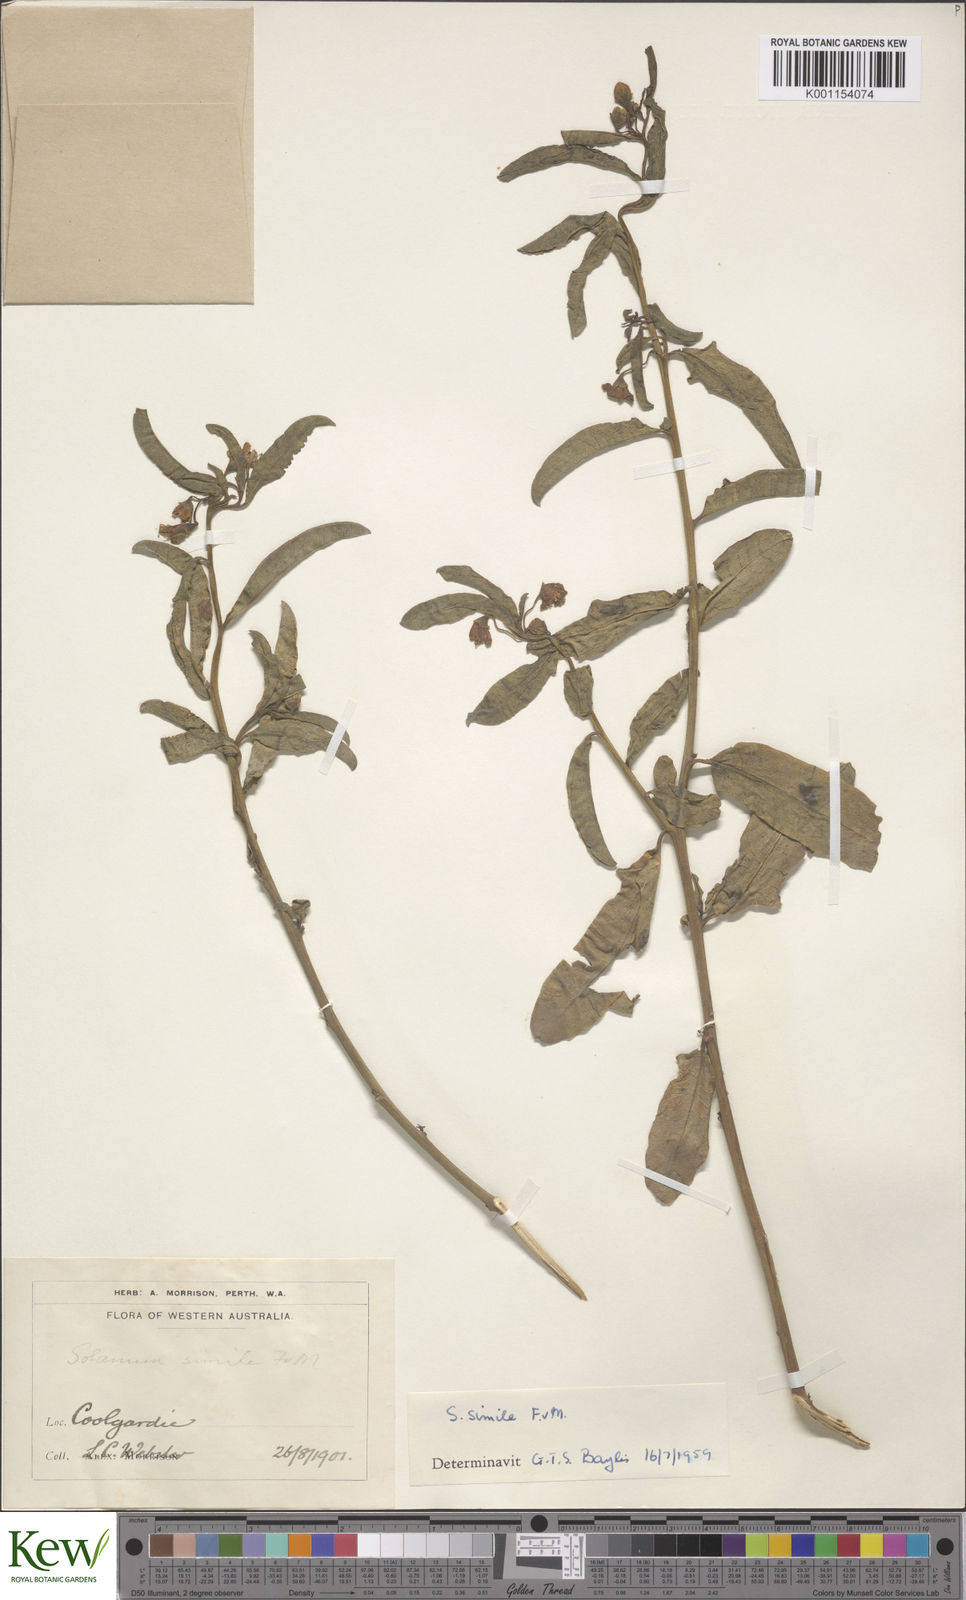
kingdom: Plantae
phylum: Tracheophyta
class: Magnoliopsida
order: Solanales
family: Solanaceae
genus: Solanum
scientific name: Solanum simile
